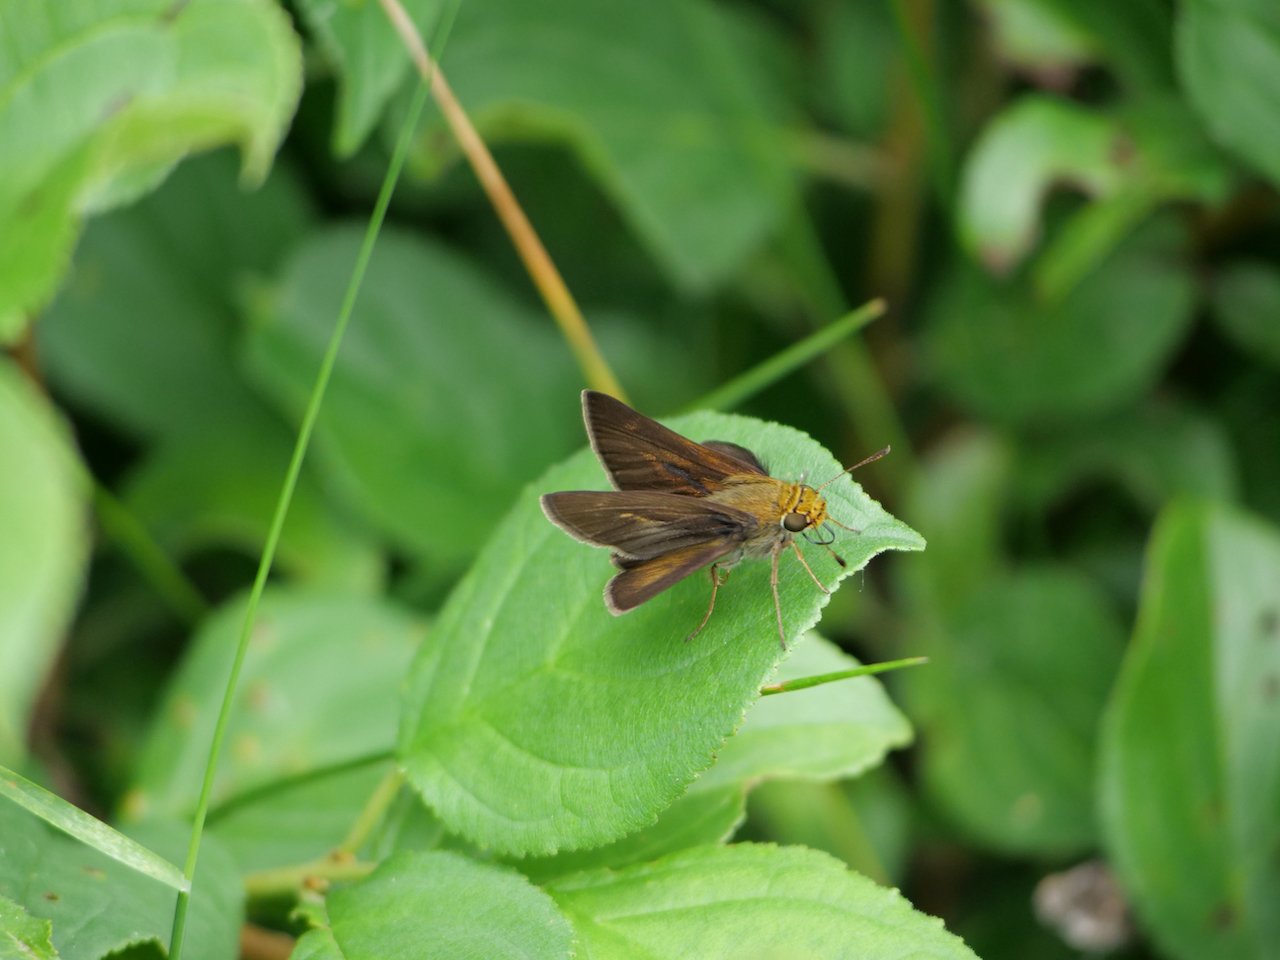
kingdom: Animalia
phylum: Arthropoda
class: Insecta
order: Lepidoptera
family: Hesperiidae
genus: Euphyes
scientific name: Euphyes vestris
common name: Dun Skipper
